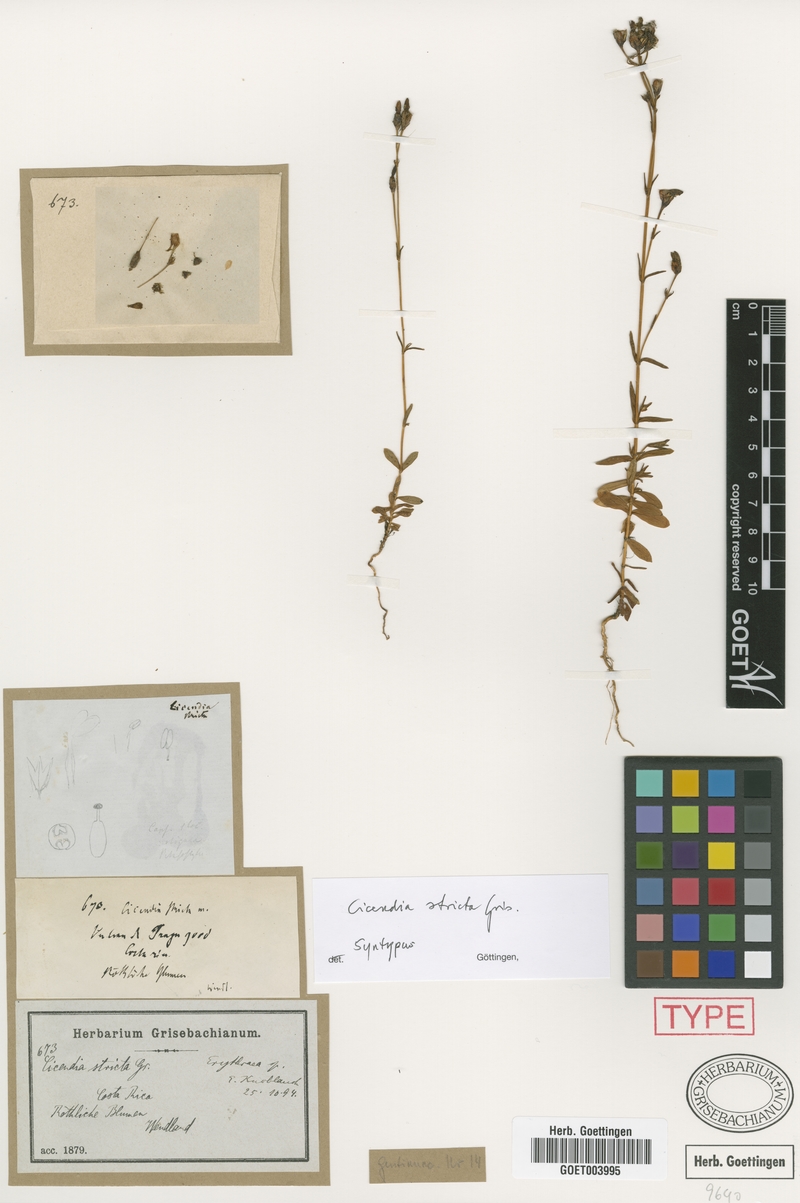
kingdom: Plantae
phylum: Tracheophyta
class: Magnoliopsida
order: Gentianales
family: Gentianaceae
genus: Gyrandra
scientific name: Gyrandra brachycalyx
